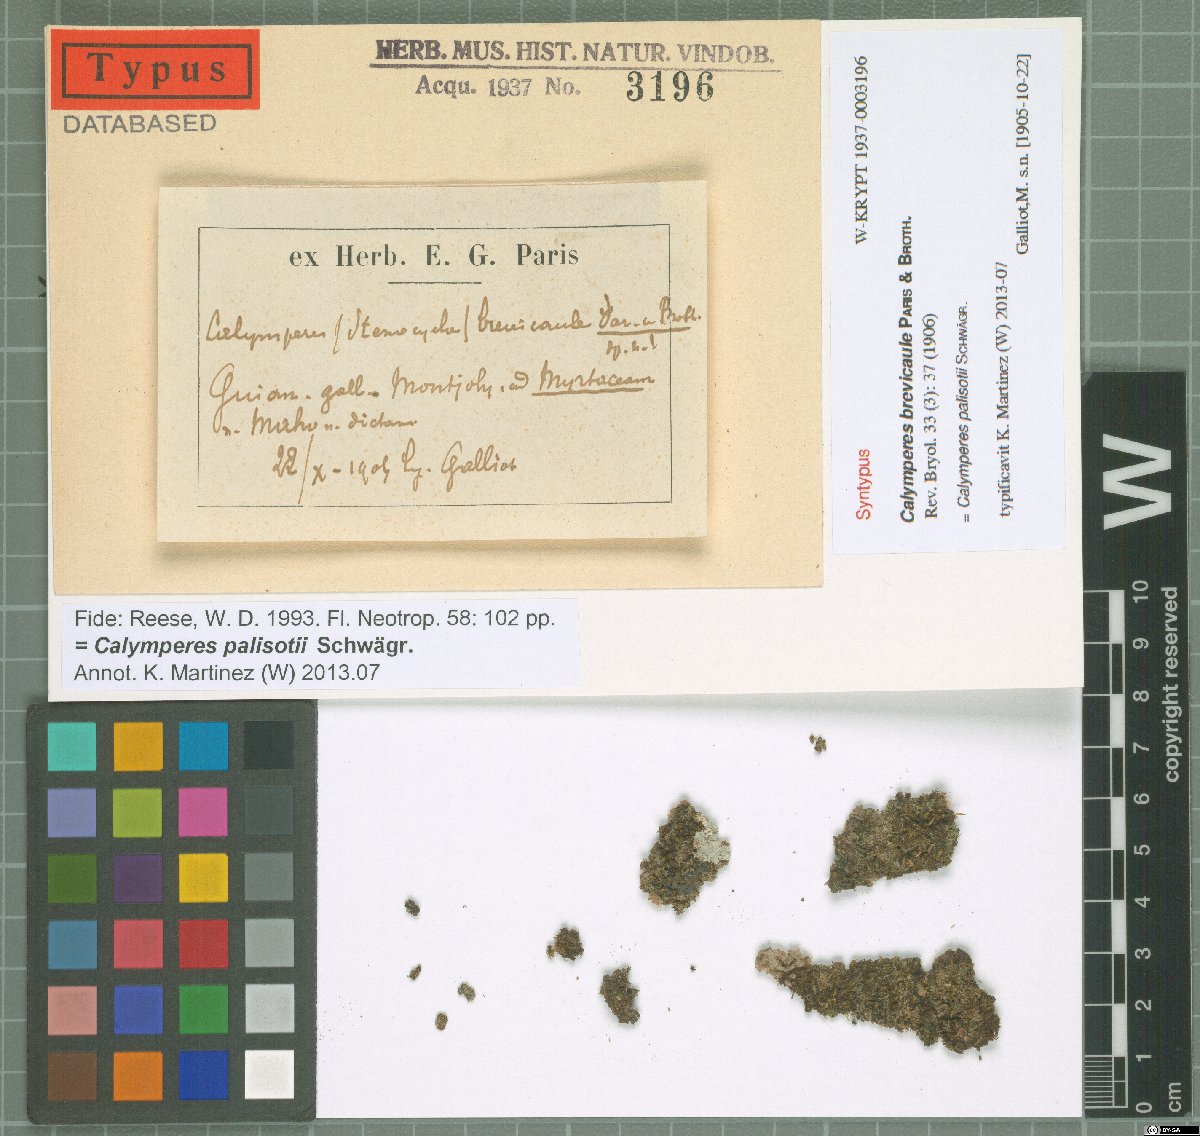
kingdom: Plantae
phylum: Bryophyta
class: Bryopsida
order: Dicranales
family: Calymperaceae
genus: Calymperes
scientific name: Calymperes palisotii
